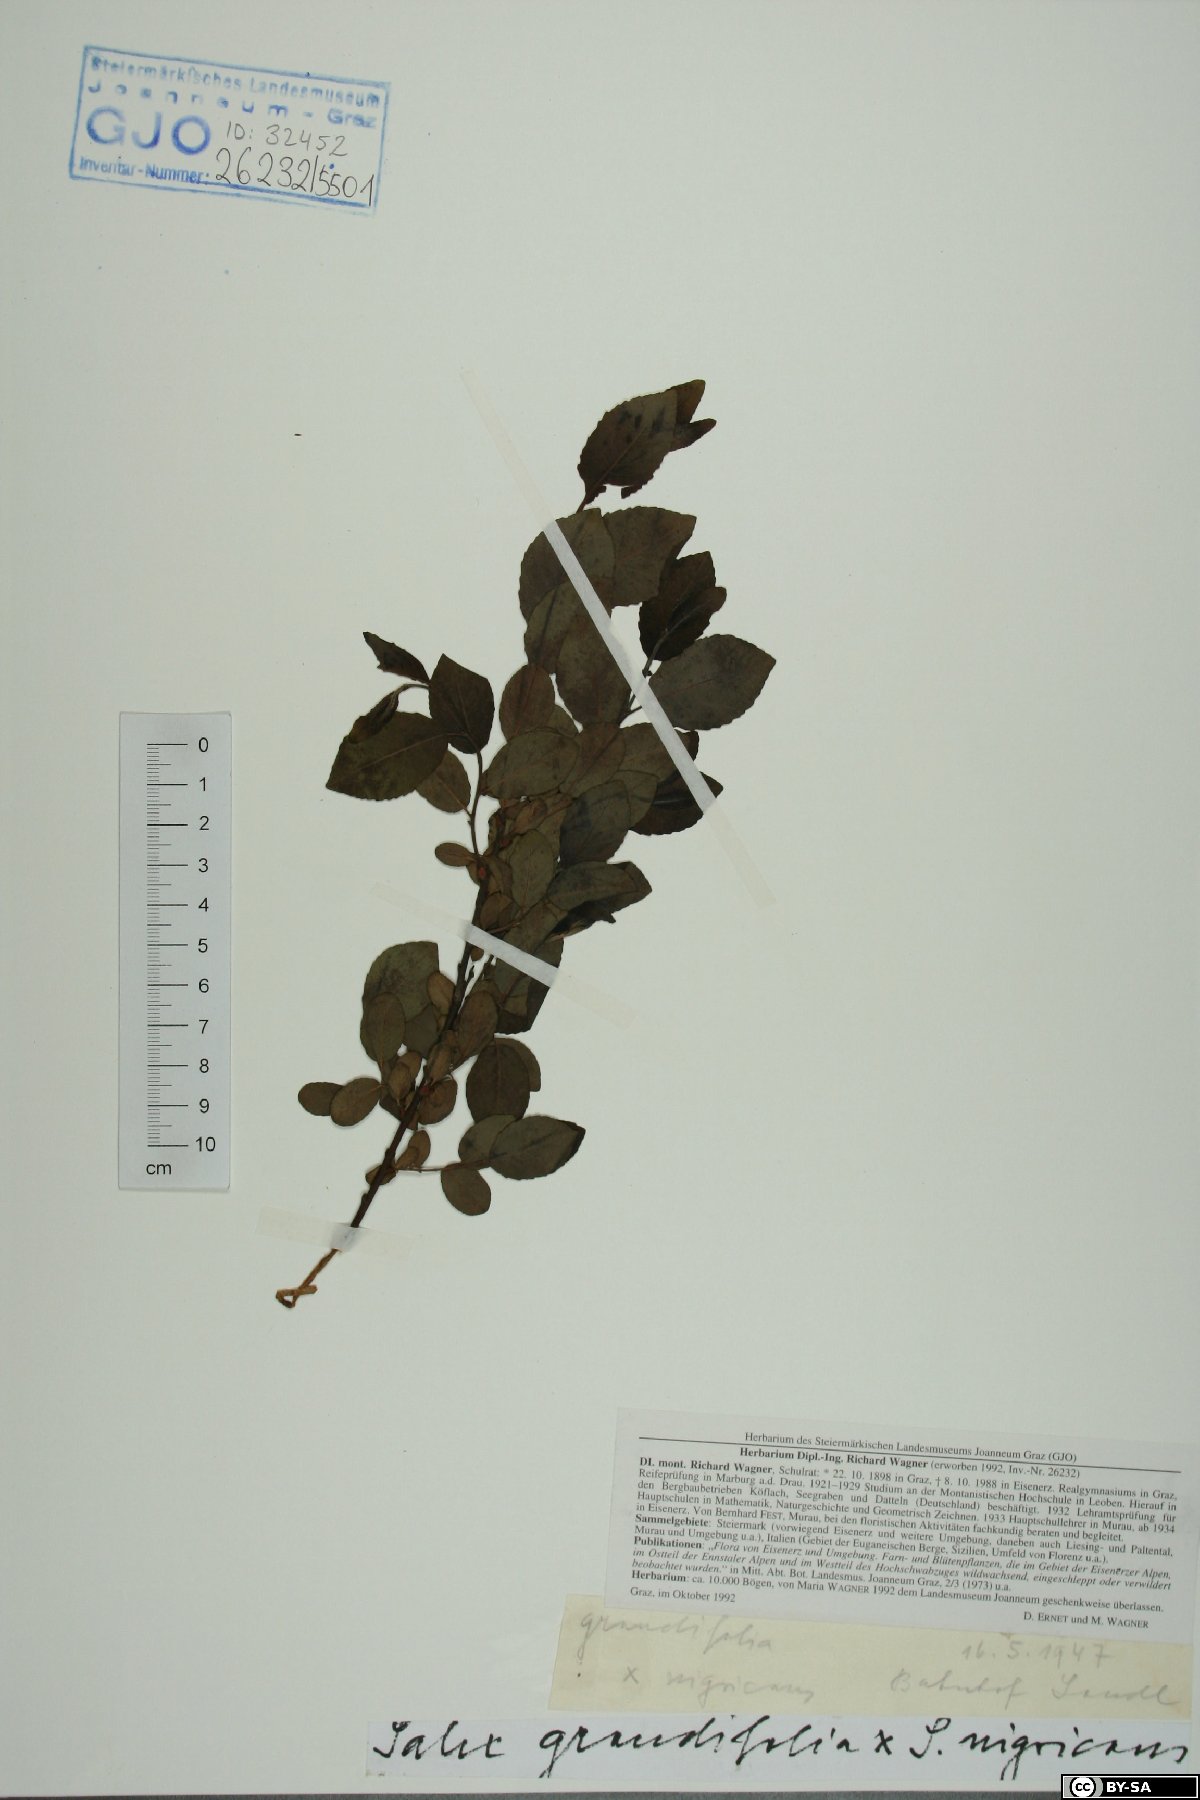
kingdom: Plantae
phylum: Tracheophyta
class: Magnoliopsida
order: Malpighiales
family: Salicaceae
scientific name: Salicaceae
